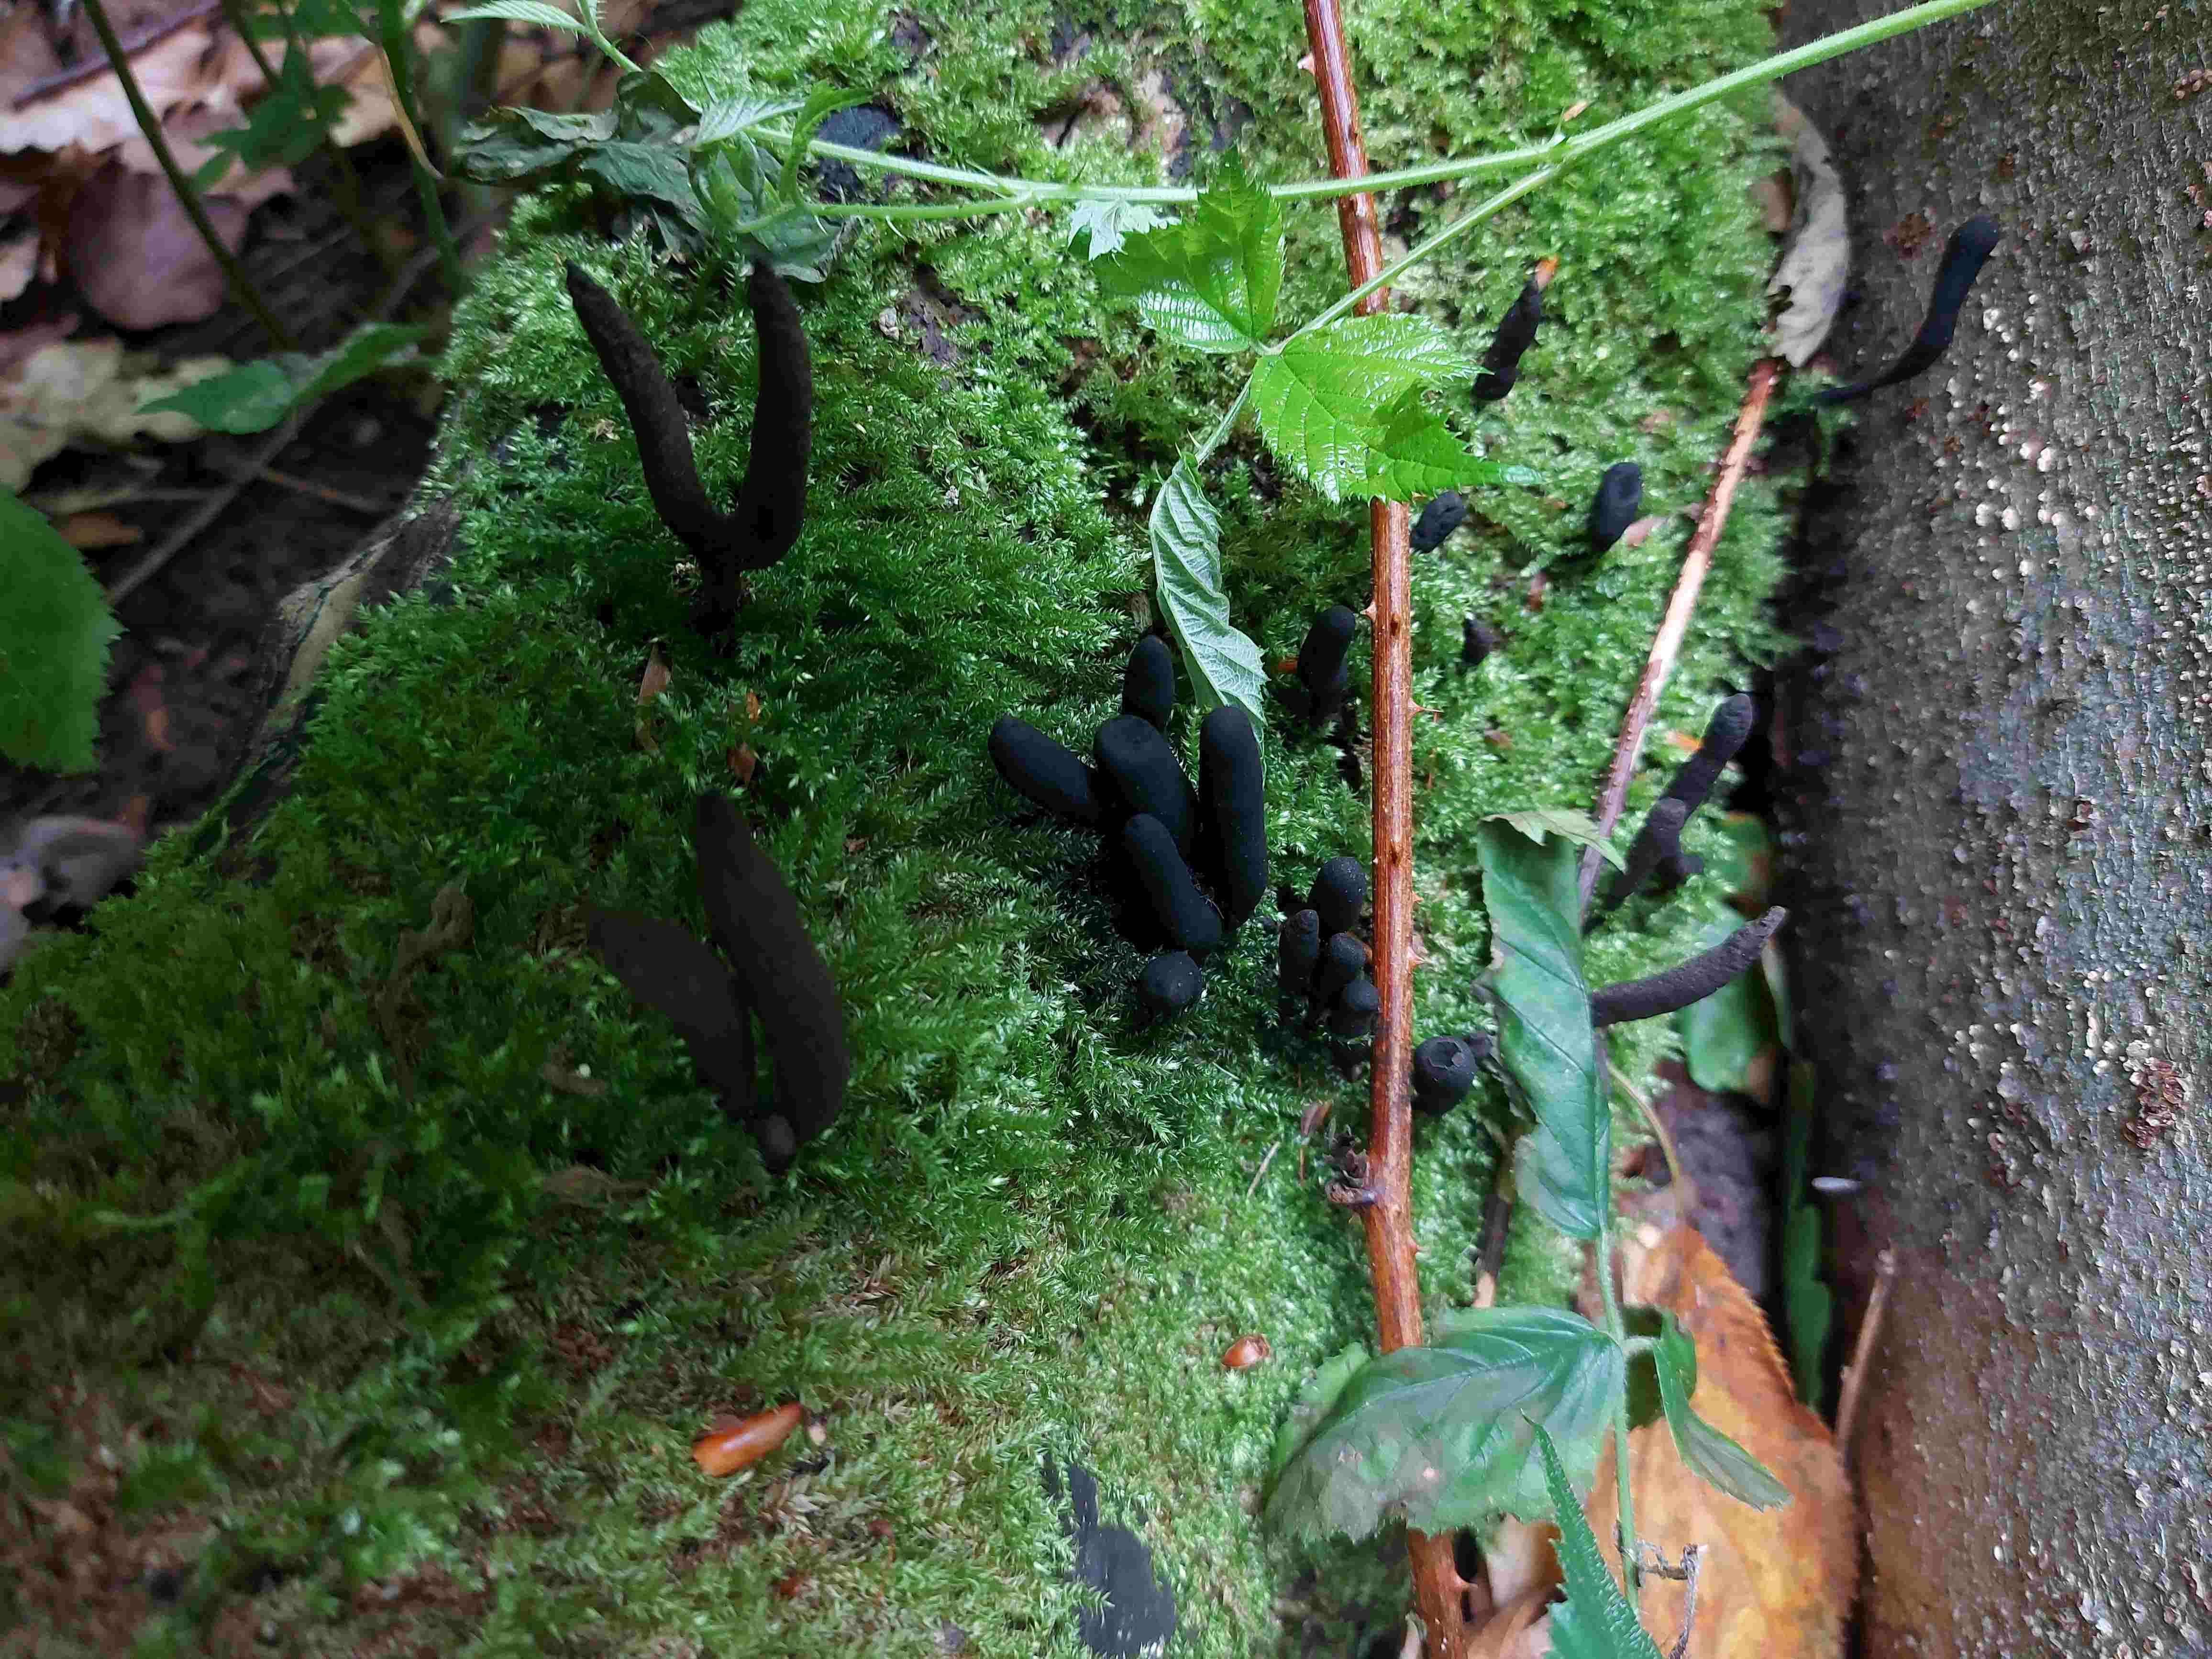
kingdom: Fungi
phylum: Ascomycota
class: Sordariomycetes
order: Xylariales
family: Xylariaceae
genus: Xylaria
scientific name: Xylaria longipes
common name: slank stødsvamp
